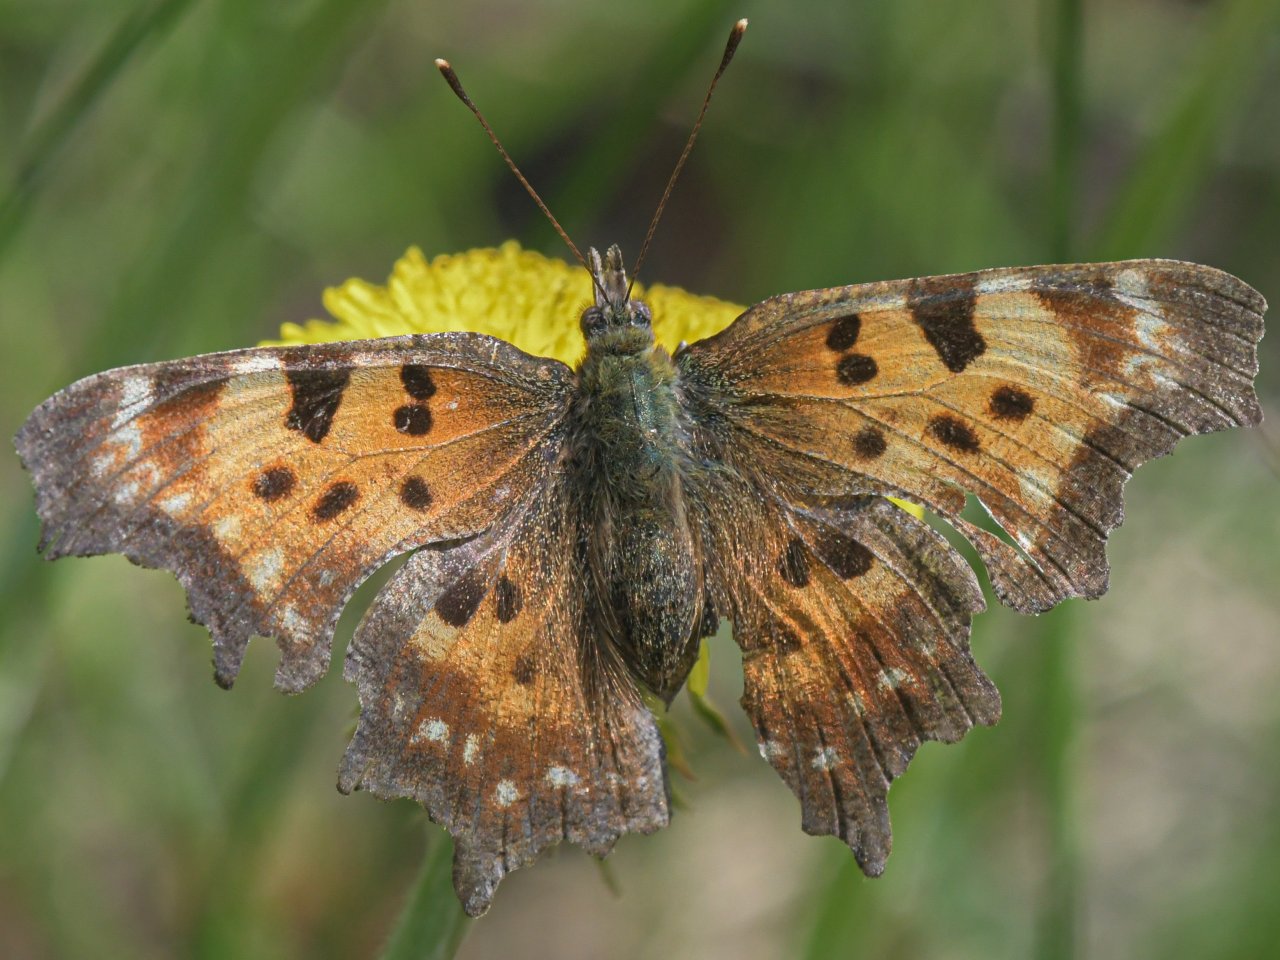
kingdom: Animalia
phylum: Arthropoda
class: Insecta
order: Lepidoptera
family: Nymphalidae
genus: Polygonia
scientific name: Polygonia faunus
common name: Green Comma
